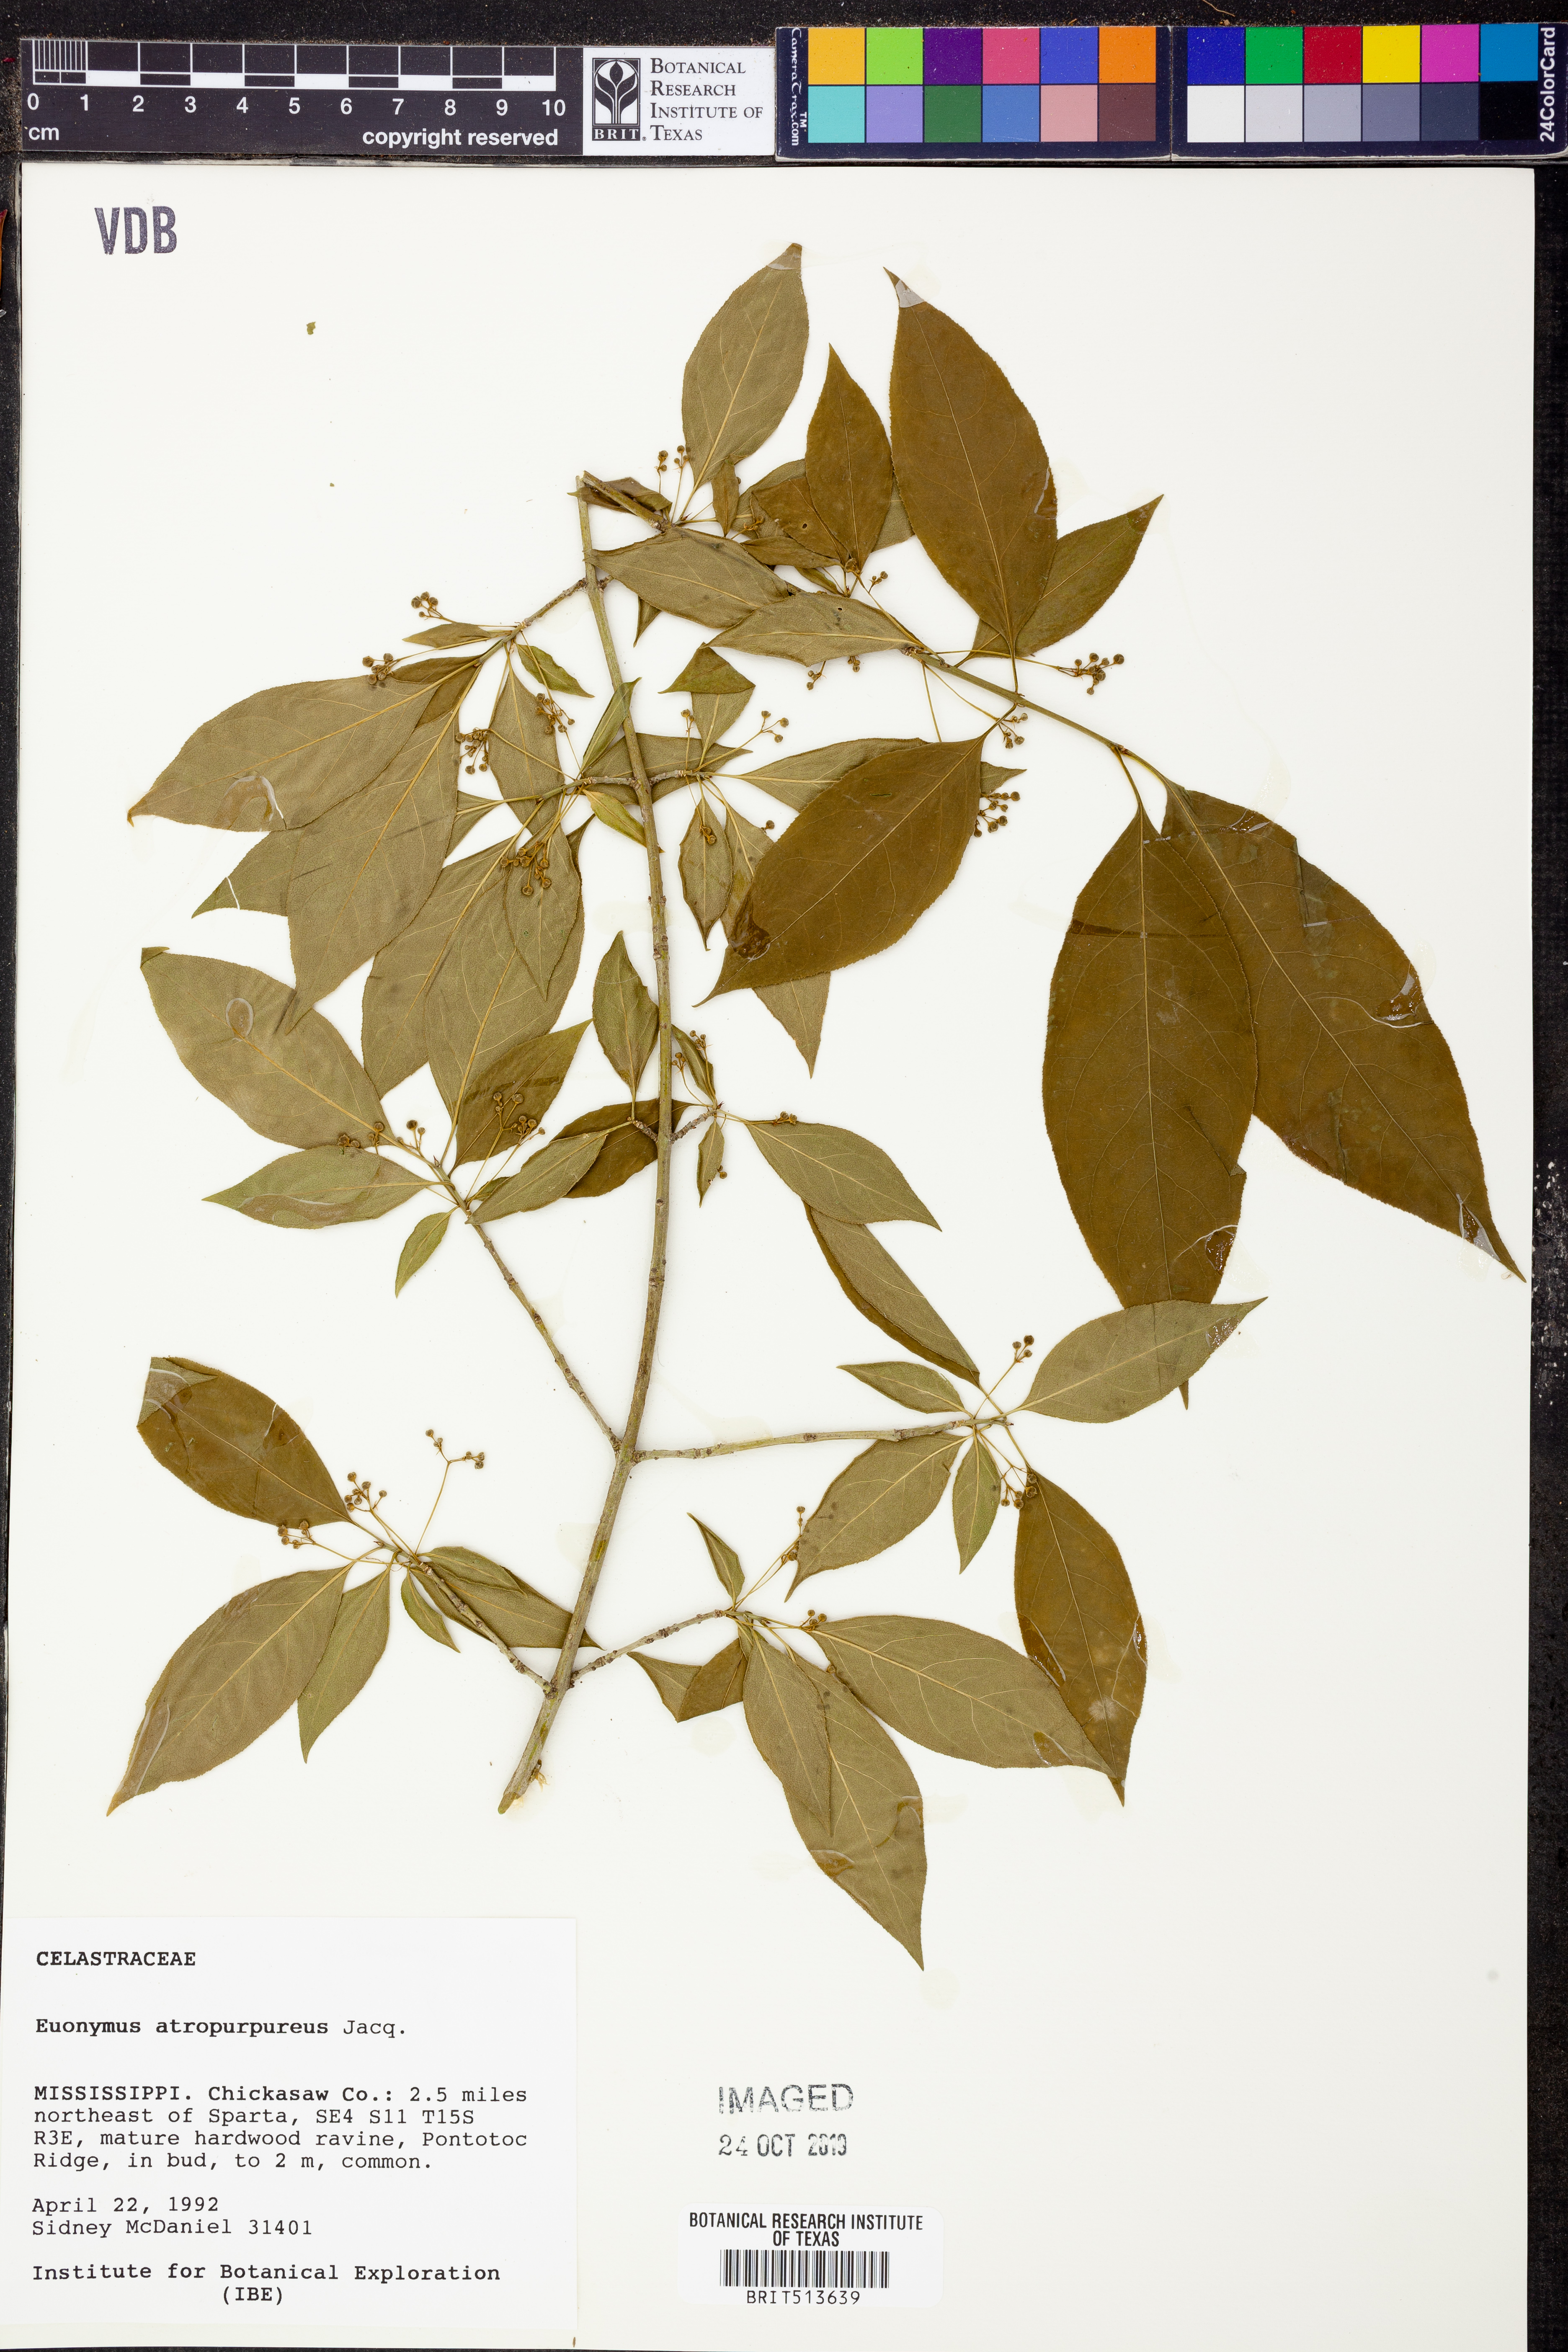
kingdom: Plantae
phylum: Tracheophyta
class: Magnoliopsida
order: Celastrales
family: Celastraceae
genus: Euonymus
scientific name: Euonymus atropurpureus
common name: Eastern wahoo
